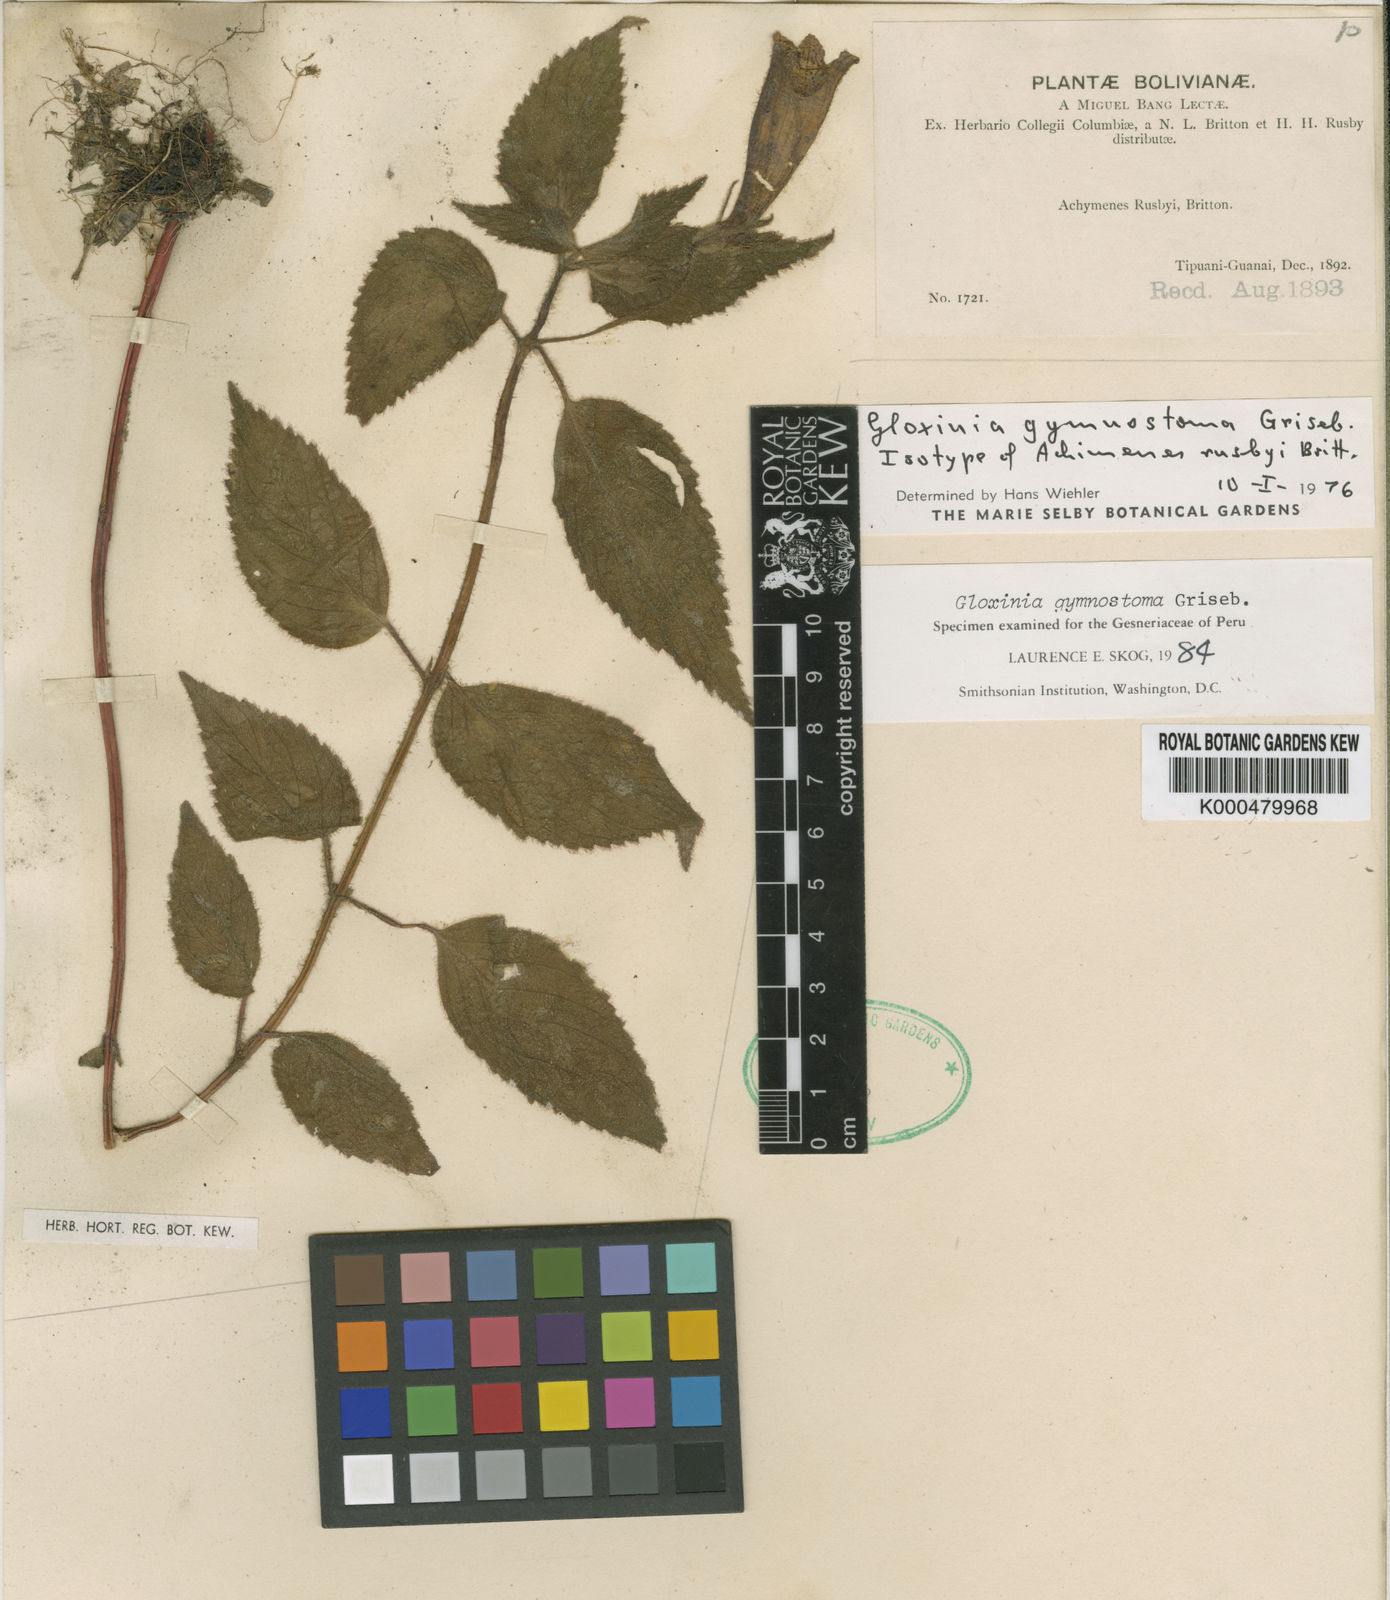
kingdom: Plantae
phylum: Tracheophyta
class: Magnoliopsida
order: Lamiales
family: Gesneriaceae
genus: Seemannia
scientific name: Seemannia gymnostoma
